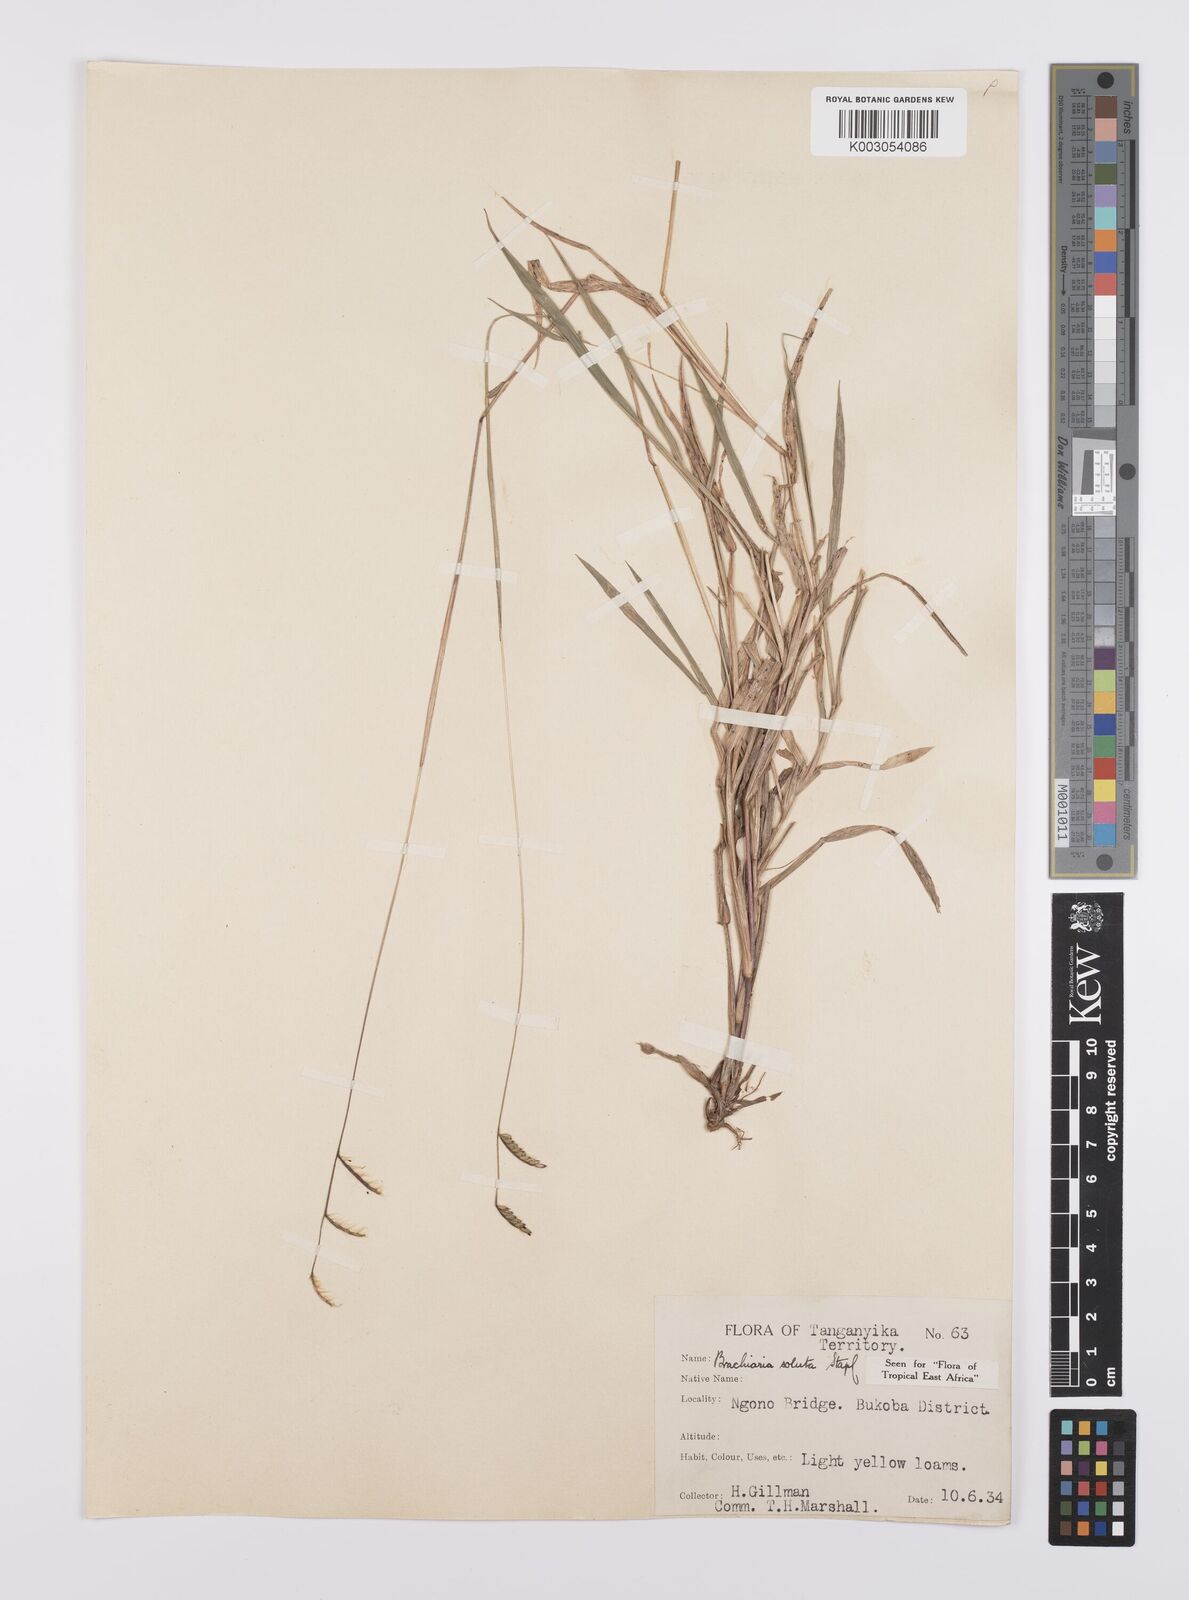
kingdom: Plantae
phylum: Tracheophyta
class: Liliopsida
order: Poales
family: Poaceae
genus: Urochloa
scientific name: Urochloa jubata
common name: Buffalograss
